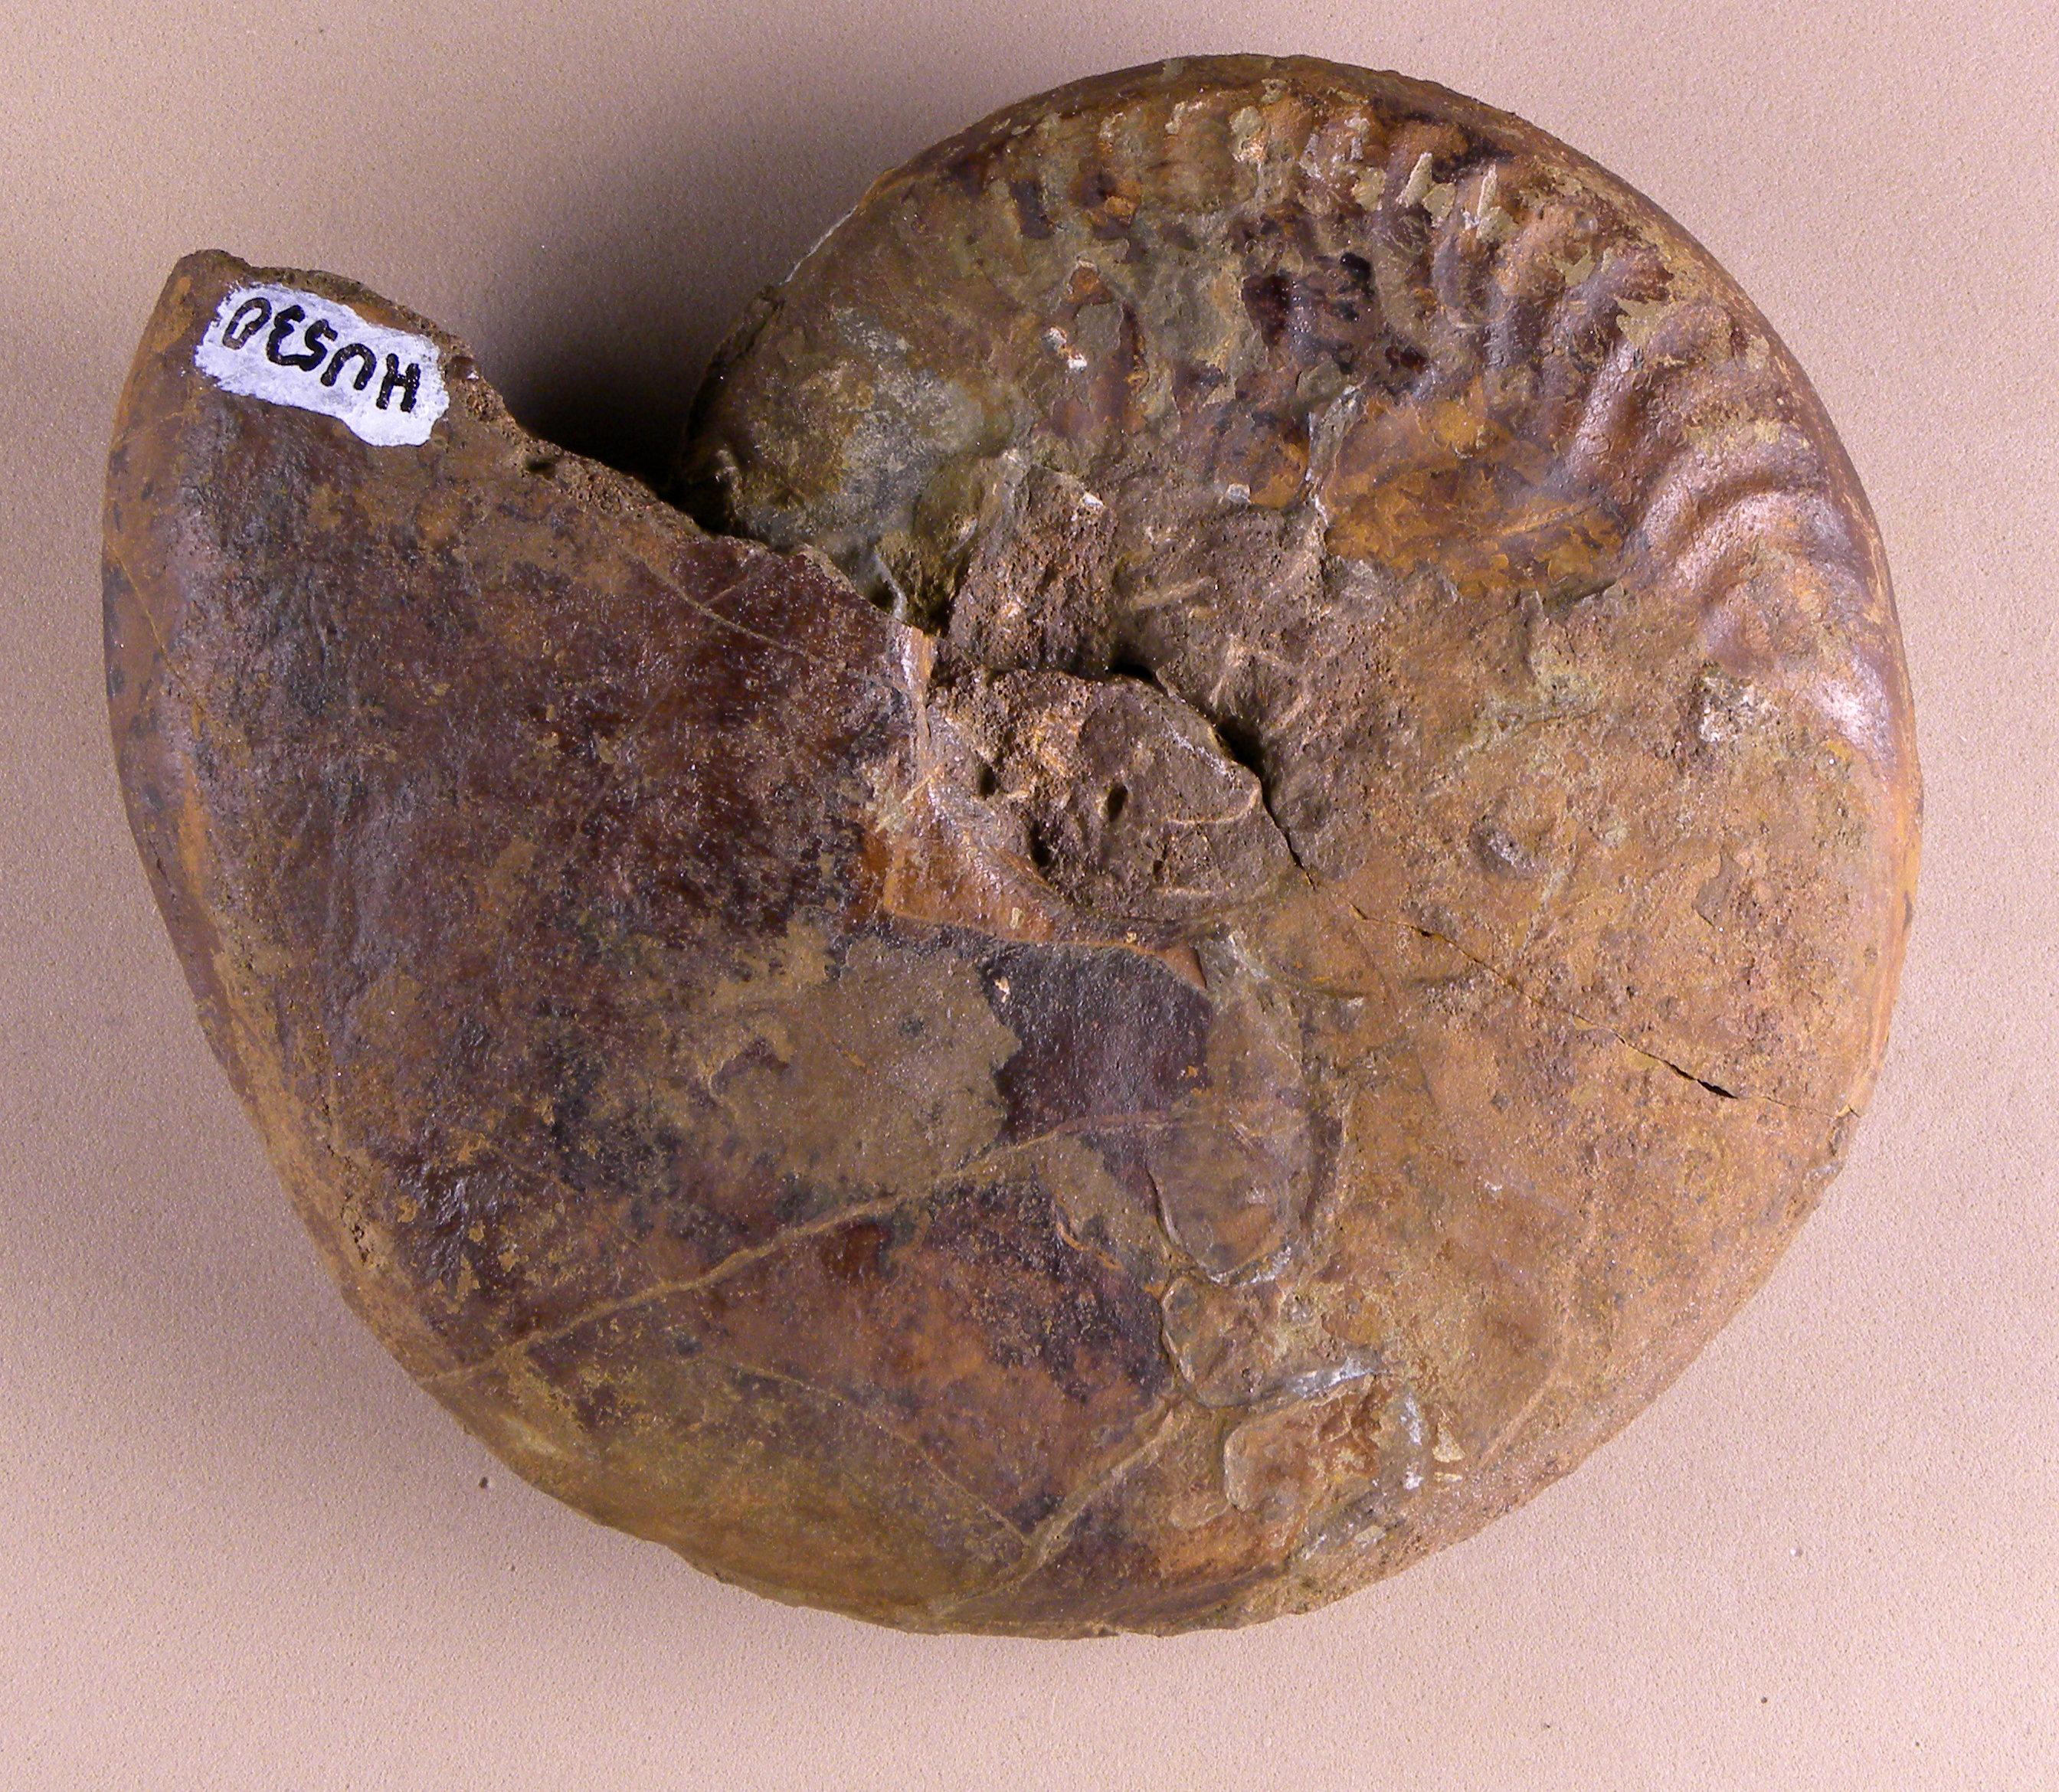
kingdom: Animalia
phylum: Mollusca
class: Cephalopoda
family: Graphoceratidae
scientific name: Graphoceratidae
